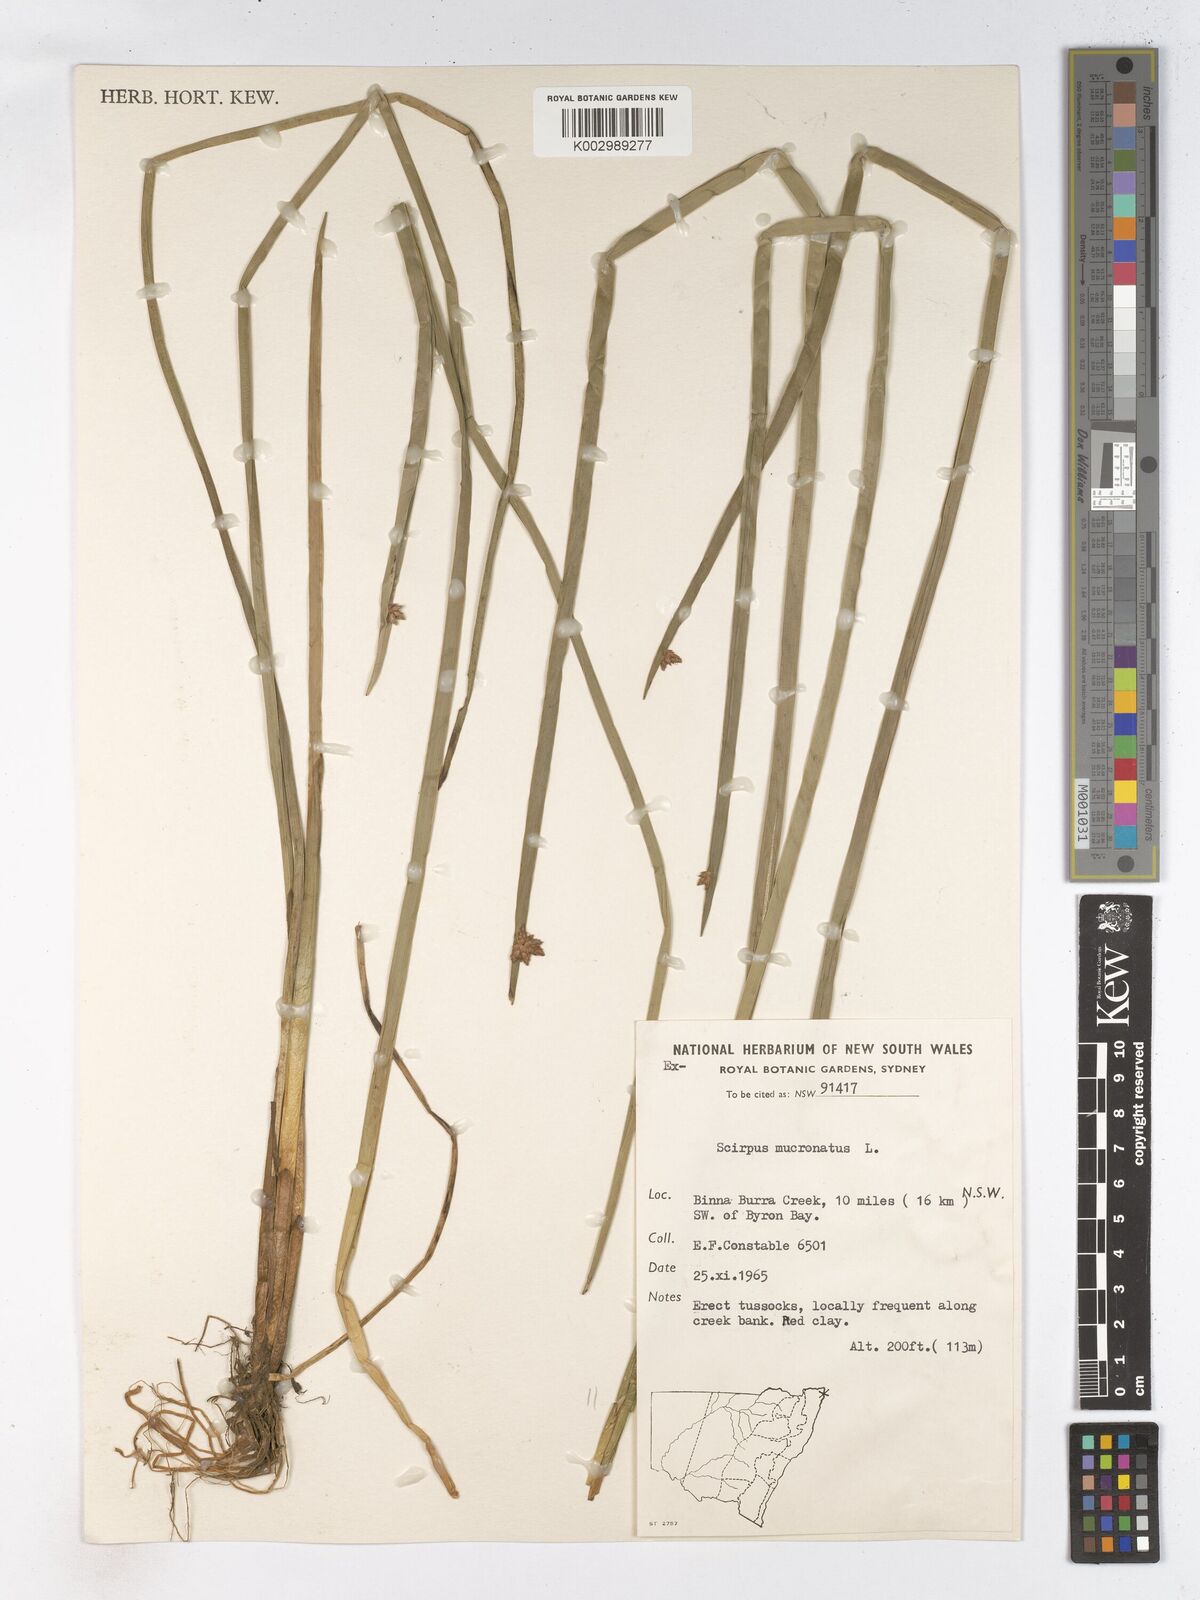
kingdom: Plantae
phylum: Tracheophyta
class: Liliopsida
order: Poales
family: Cyperaceae
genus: Schoenoplectiella
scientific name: Schoenoplectiella mucronata
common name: Bog bulrush
